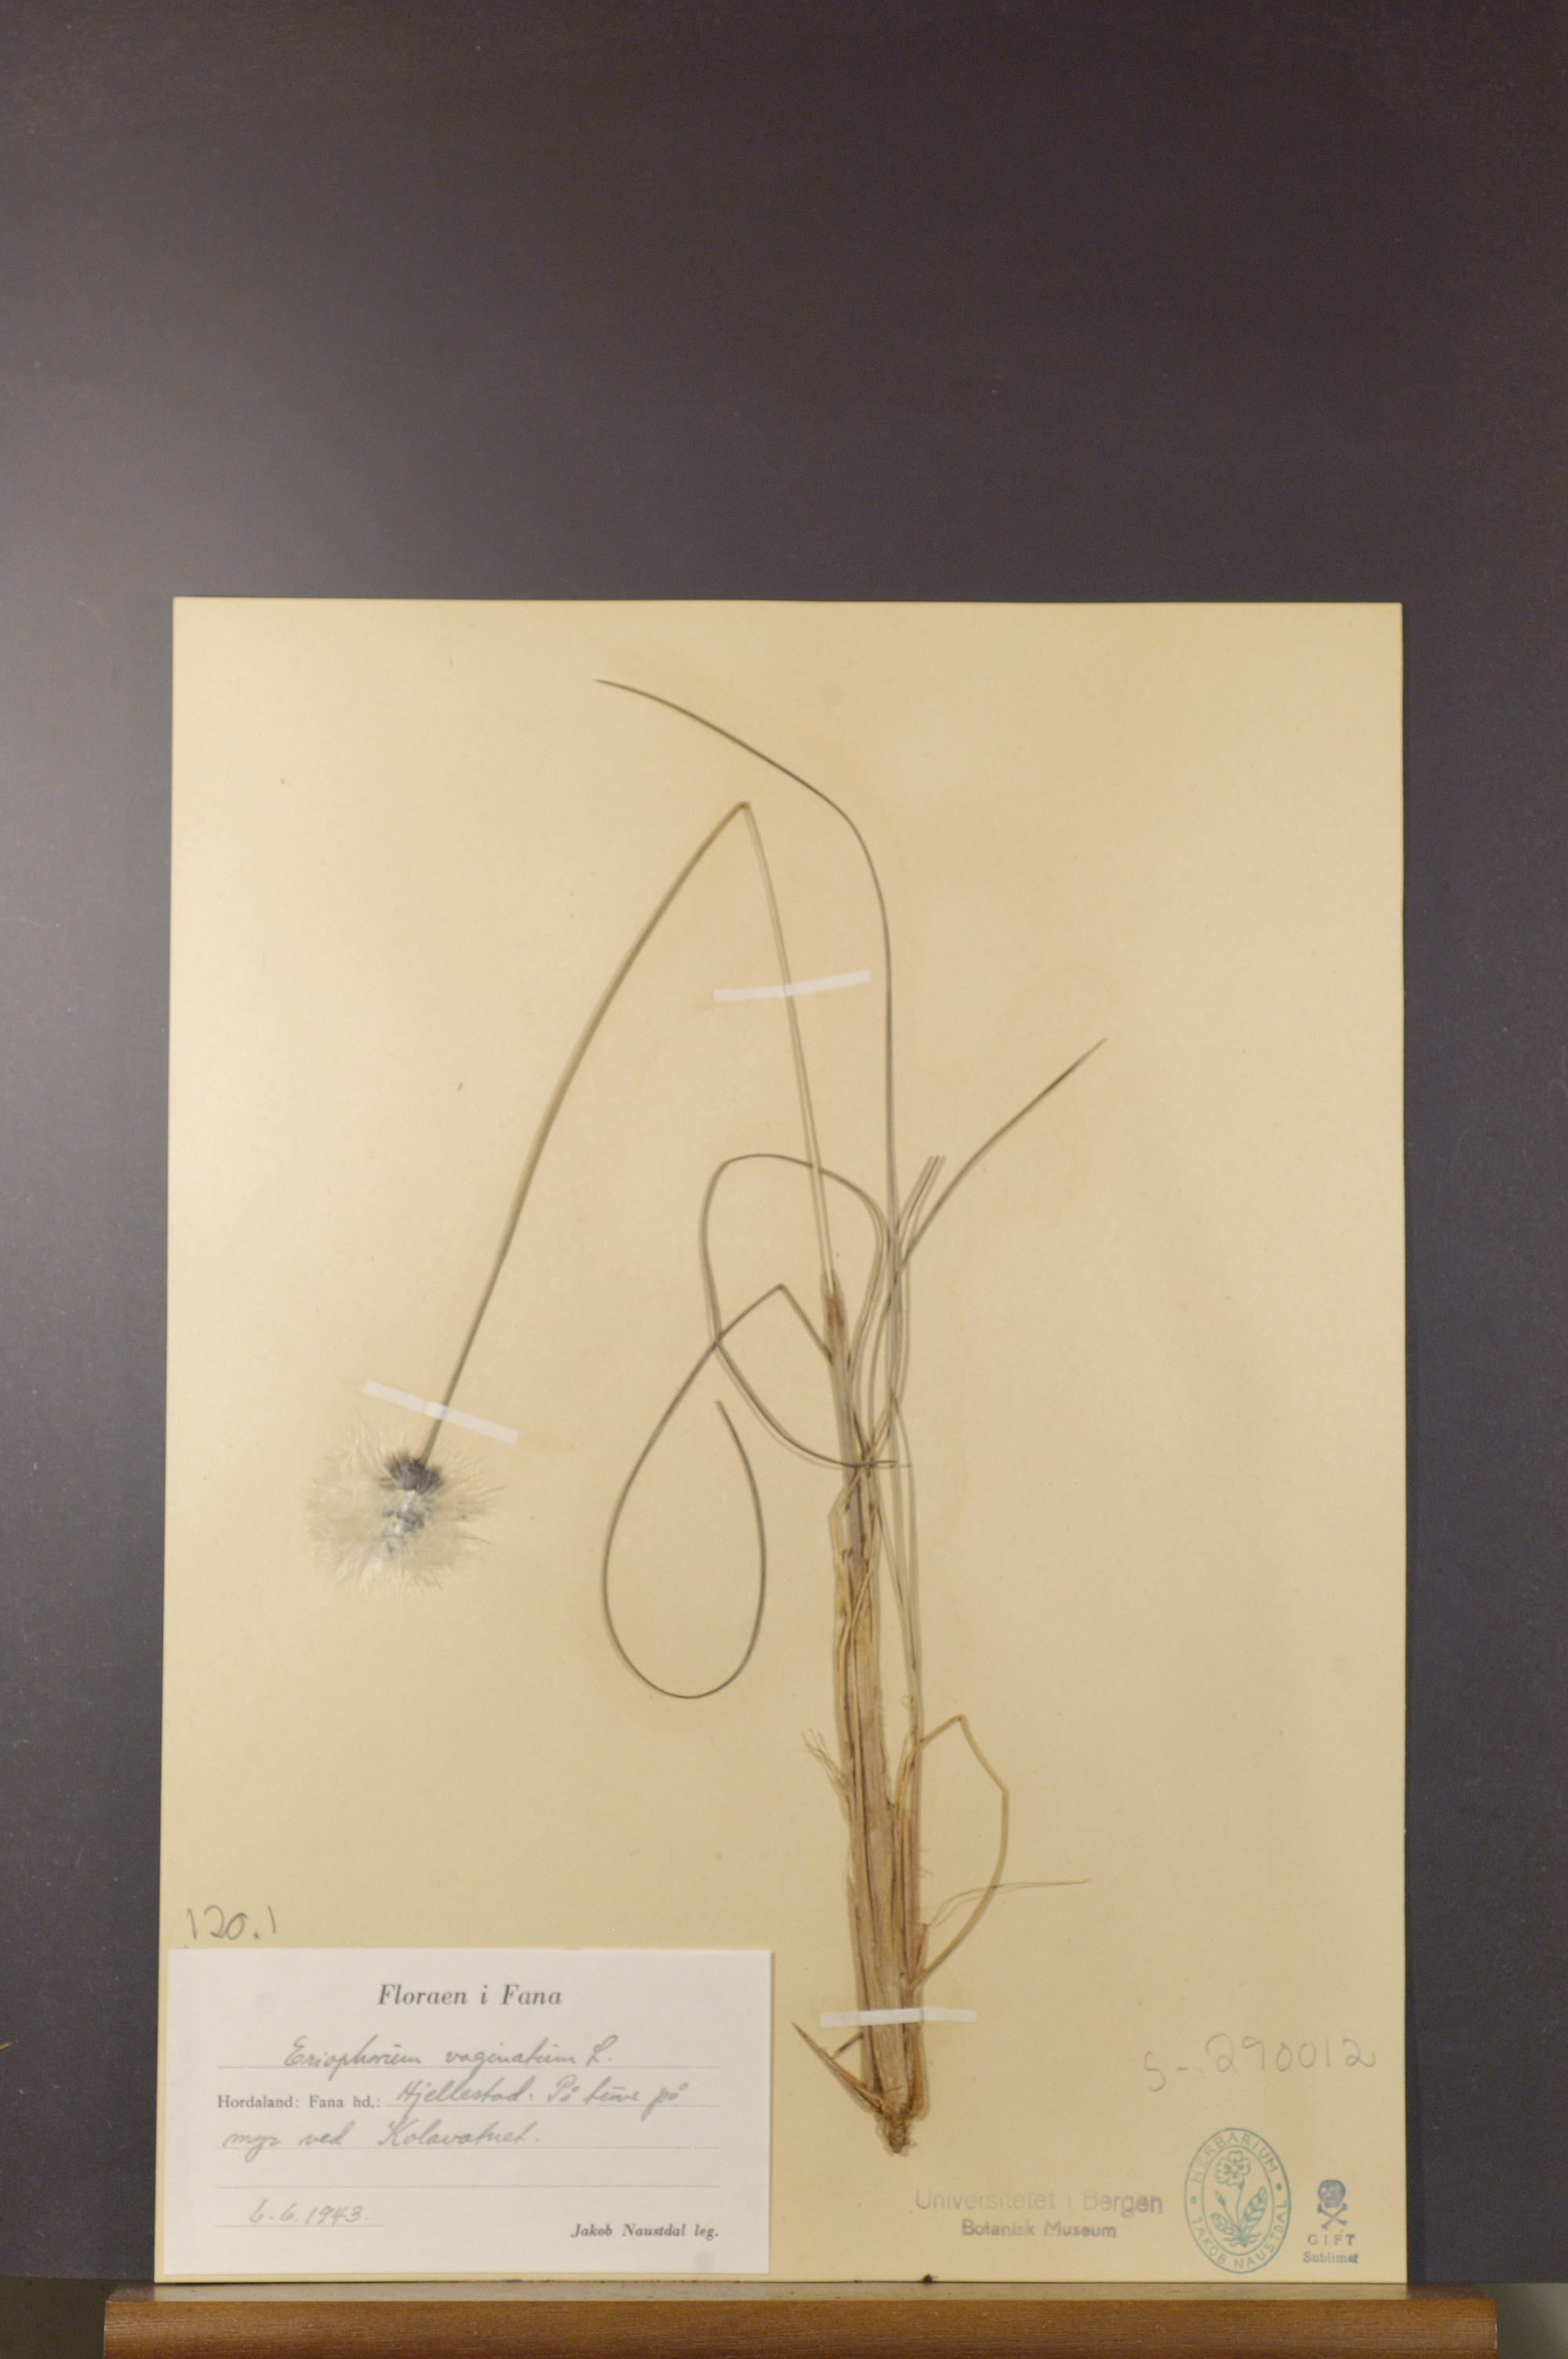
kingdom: Plantae
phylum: Tracheophyta
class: Liliopsida
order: Poales
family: Cyperaceae
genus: Eriophorum
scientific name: Eriophorum vaginatum
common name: Hare's-tail cottongrass
